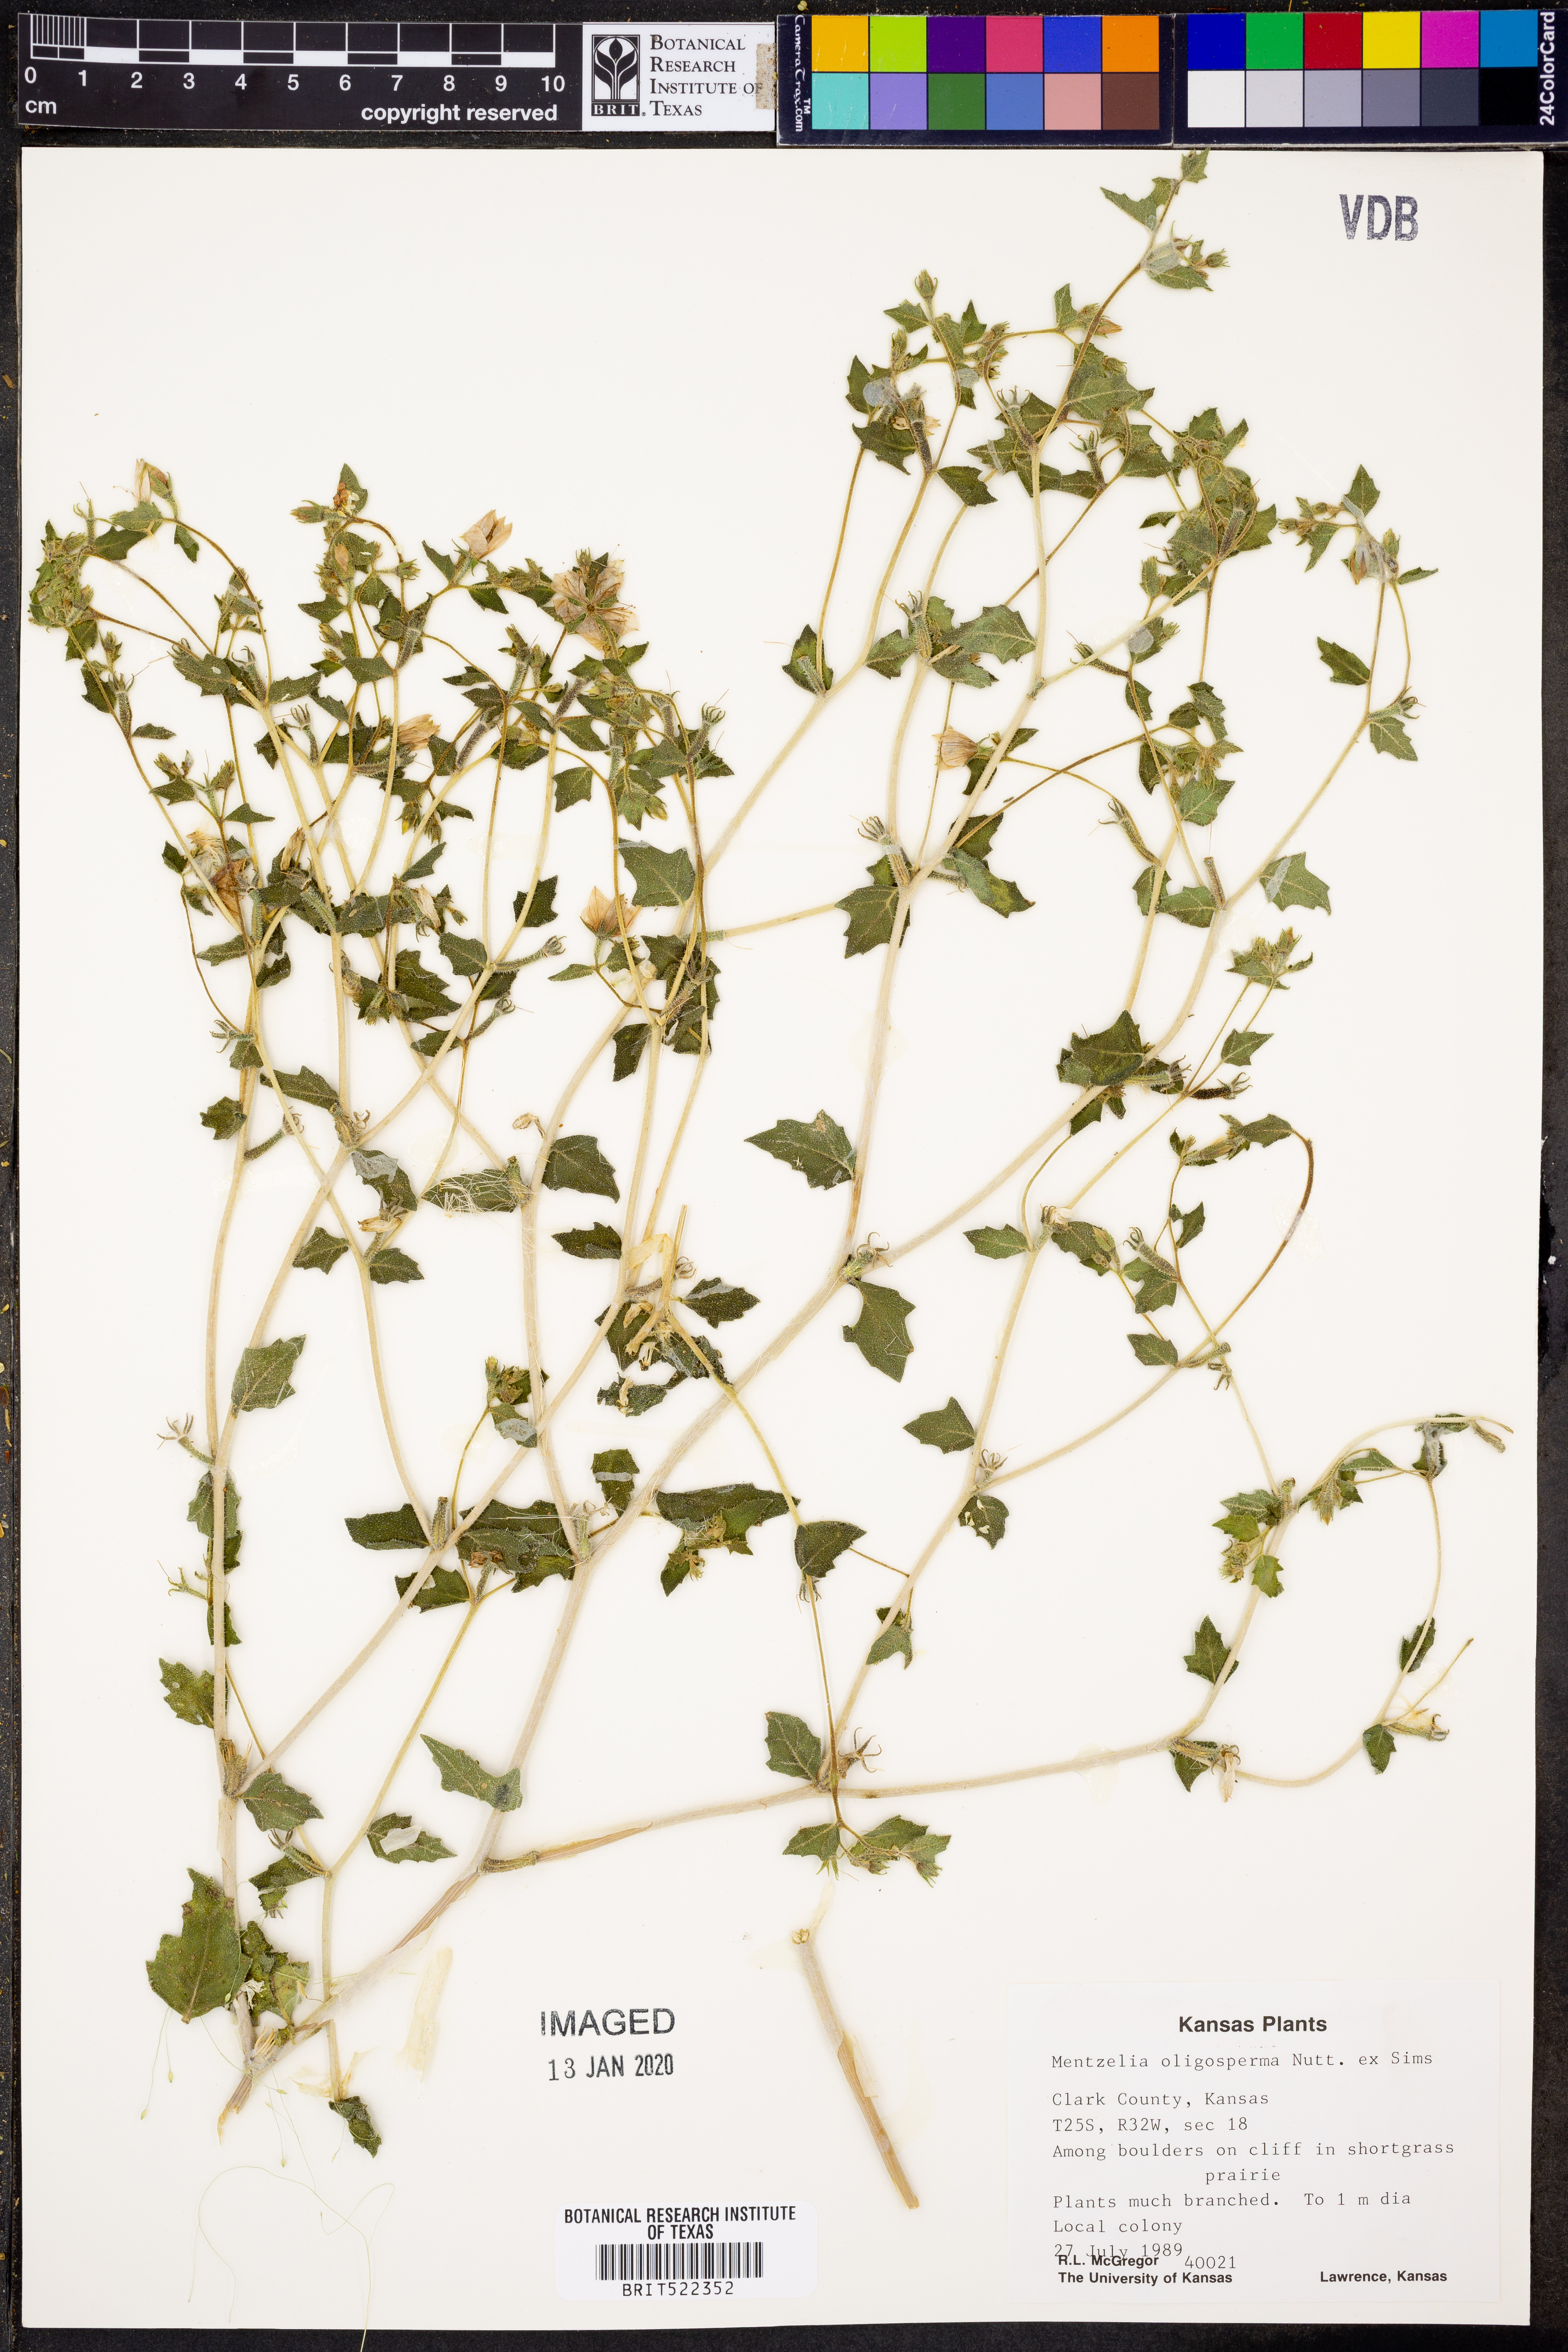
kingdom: Plantae
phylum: Tracheophyta
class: Magnoliopsida
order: Cornales
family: Loasaceae
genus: Mentzelia
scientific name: Mentzelia oligosperma
